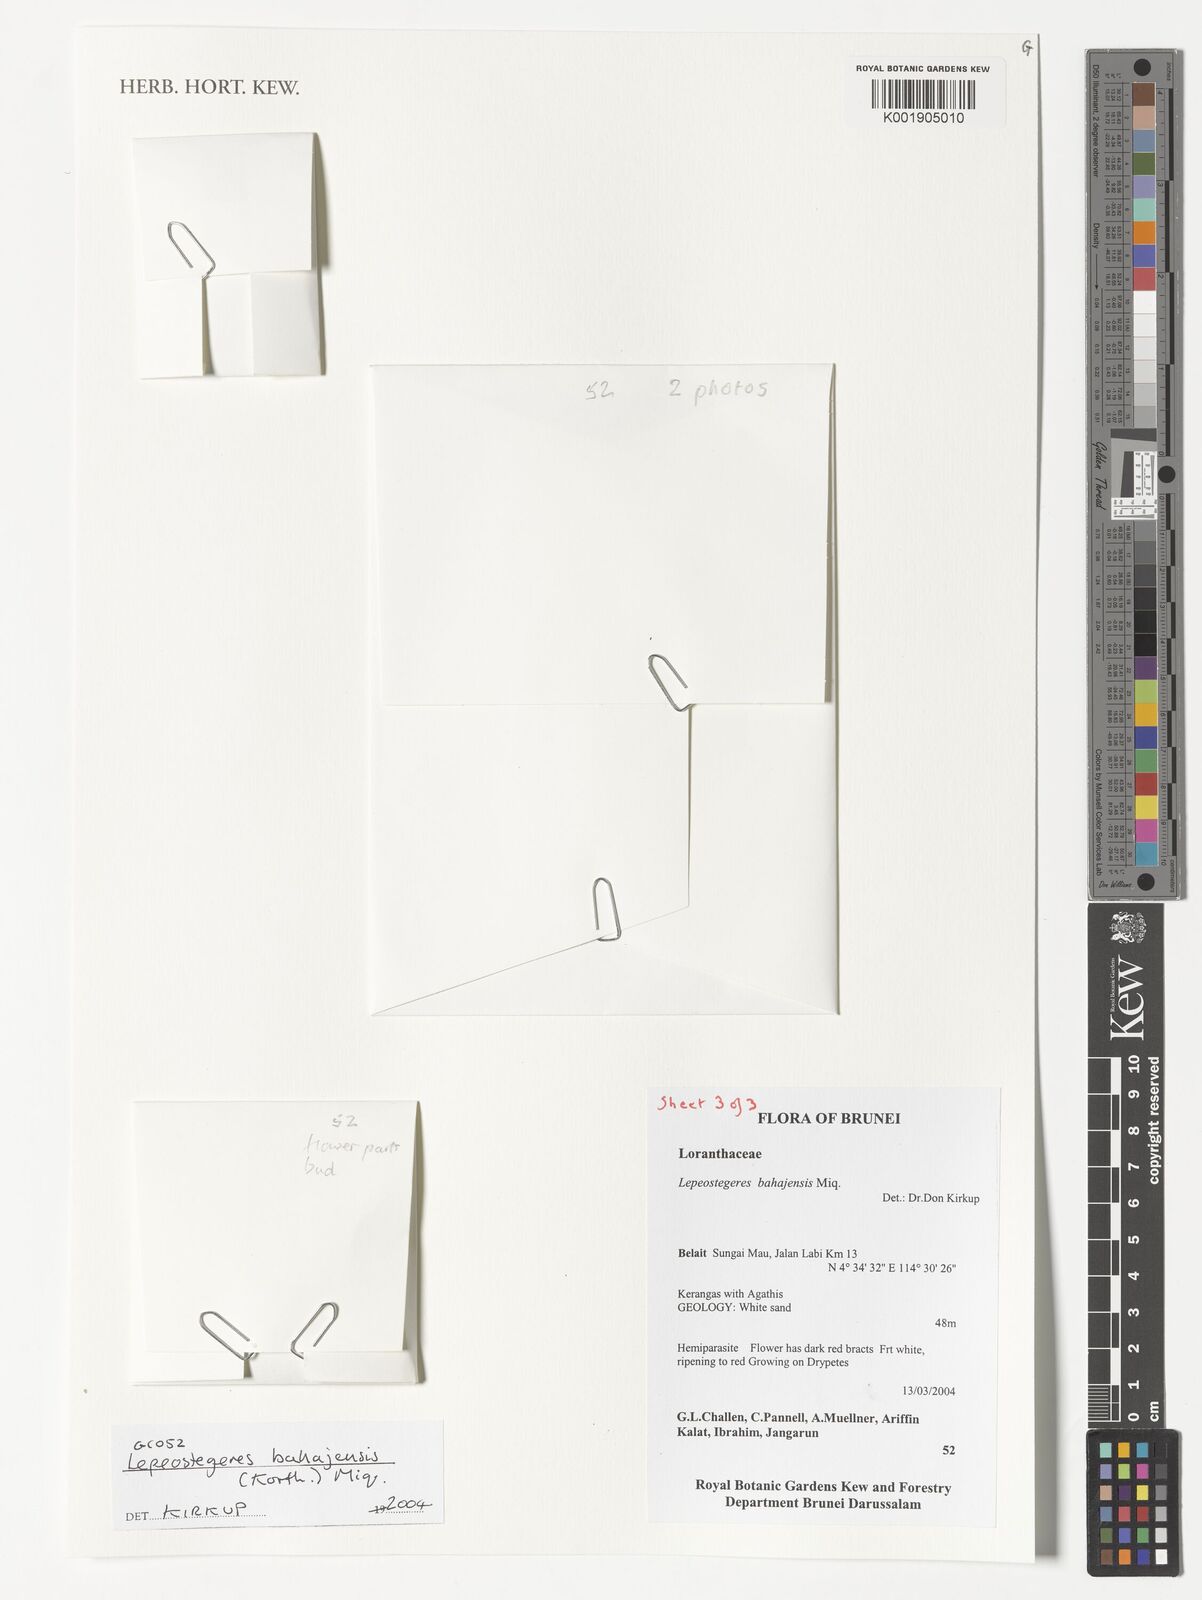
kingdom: Plantae
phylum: Tracheophyta
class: Magnoliopsida
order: Santalales
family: Loranthaceae
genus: Lepeostegeres
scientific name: Lepeostegeres bahajensis
